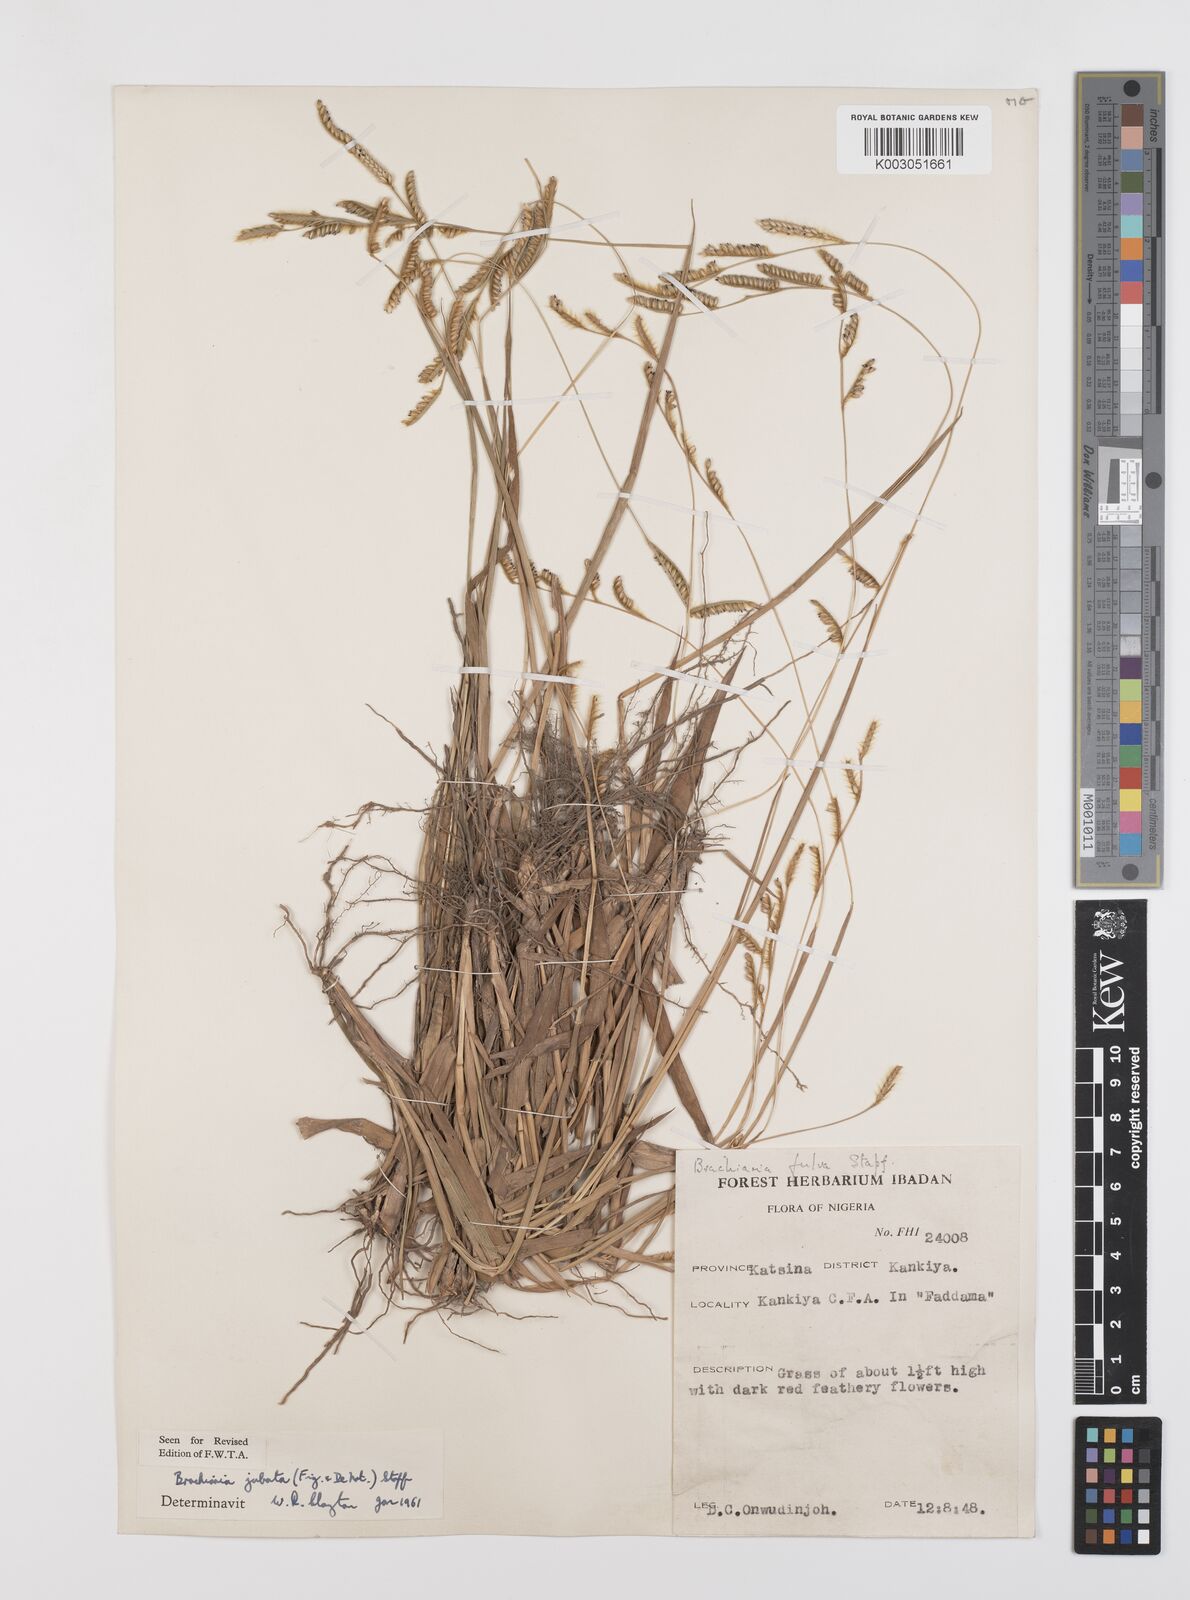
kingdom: Plantae
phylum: Tracheophyta
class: Liliopsida
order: Poales
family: Poaceae
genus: Urochloa
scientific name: Urochloa jubata
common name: Buffalograss
